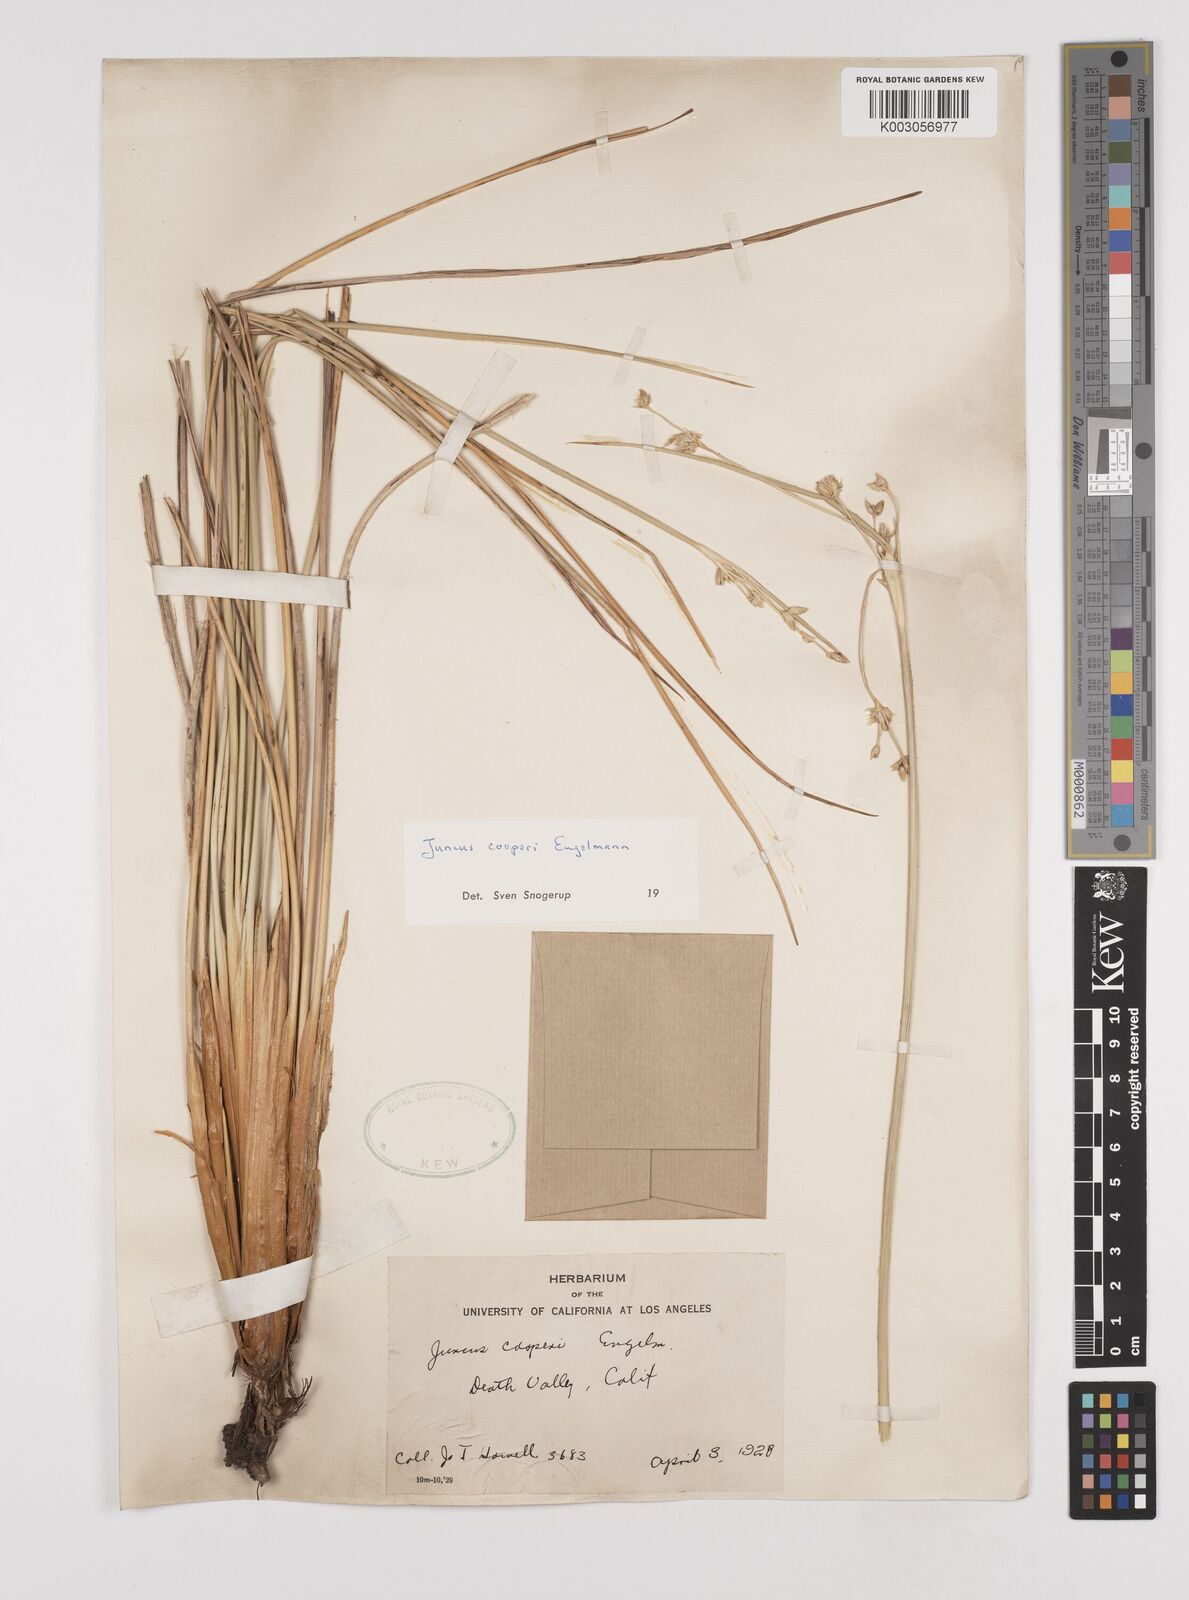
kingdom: Plantae
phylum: Tracheophyta
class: Liliopsida
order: Poales
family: Juncaceae
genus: Juncus
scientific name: Juncus cooperi
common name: Cooper's rush
